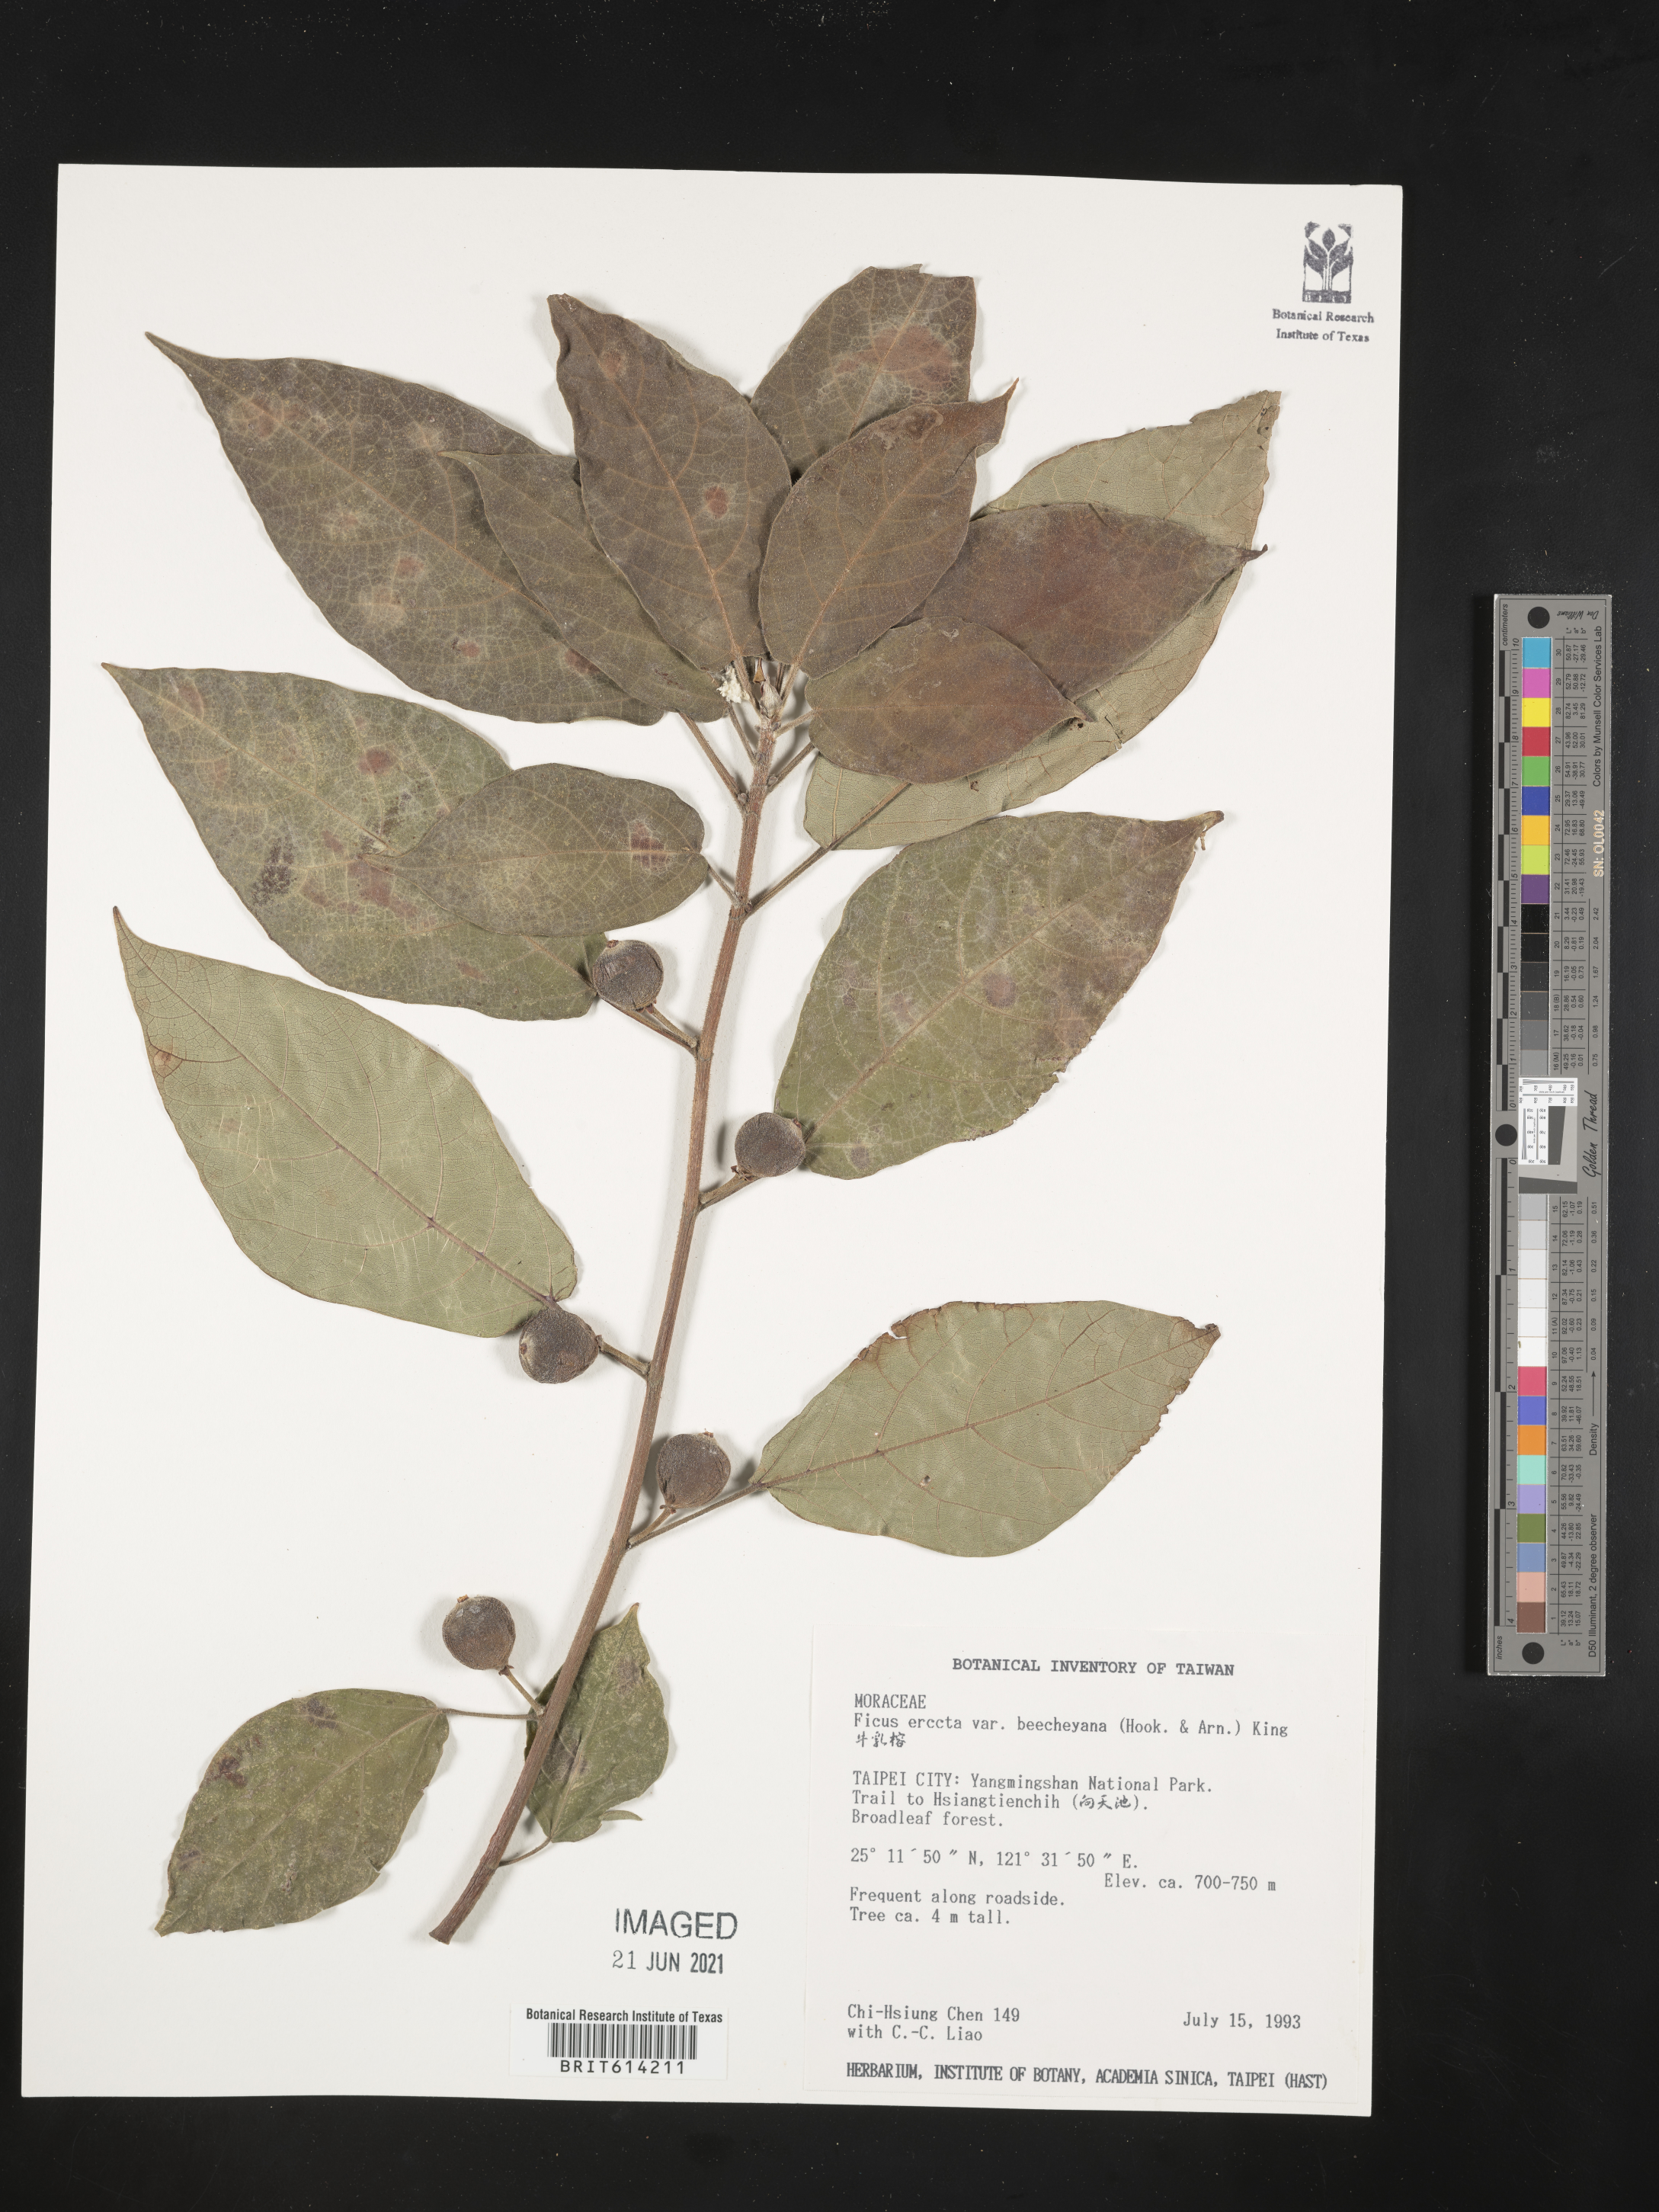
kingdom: Plantae
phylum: Tracheophyta
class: Magnoliopsida
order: Rosales
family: Moraceae
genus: Ficus
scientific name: Ficus erecta
